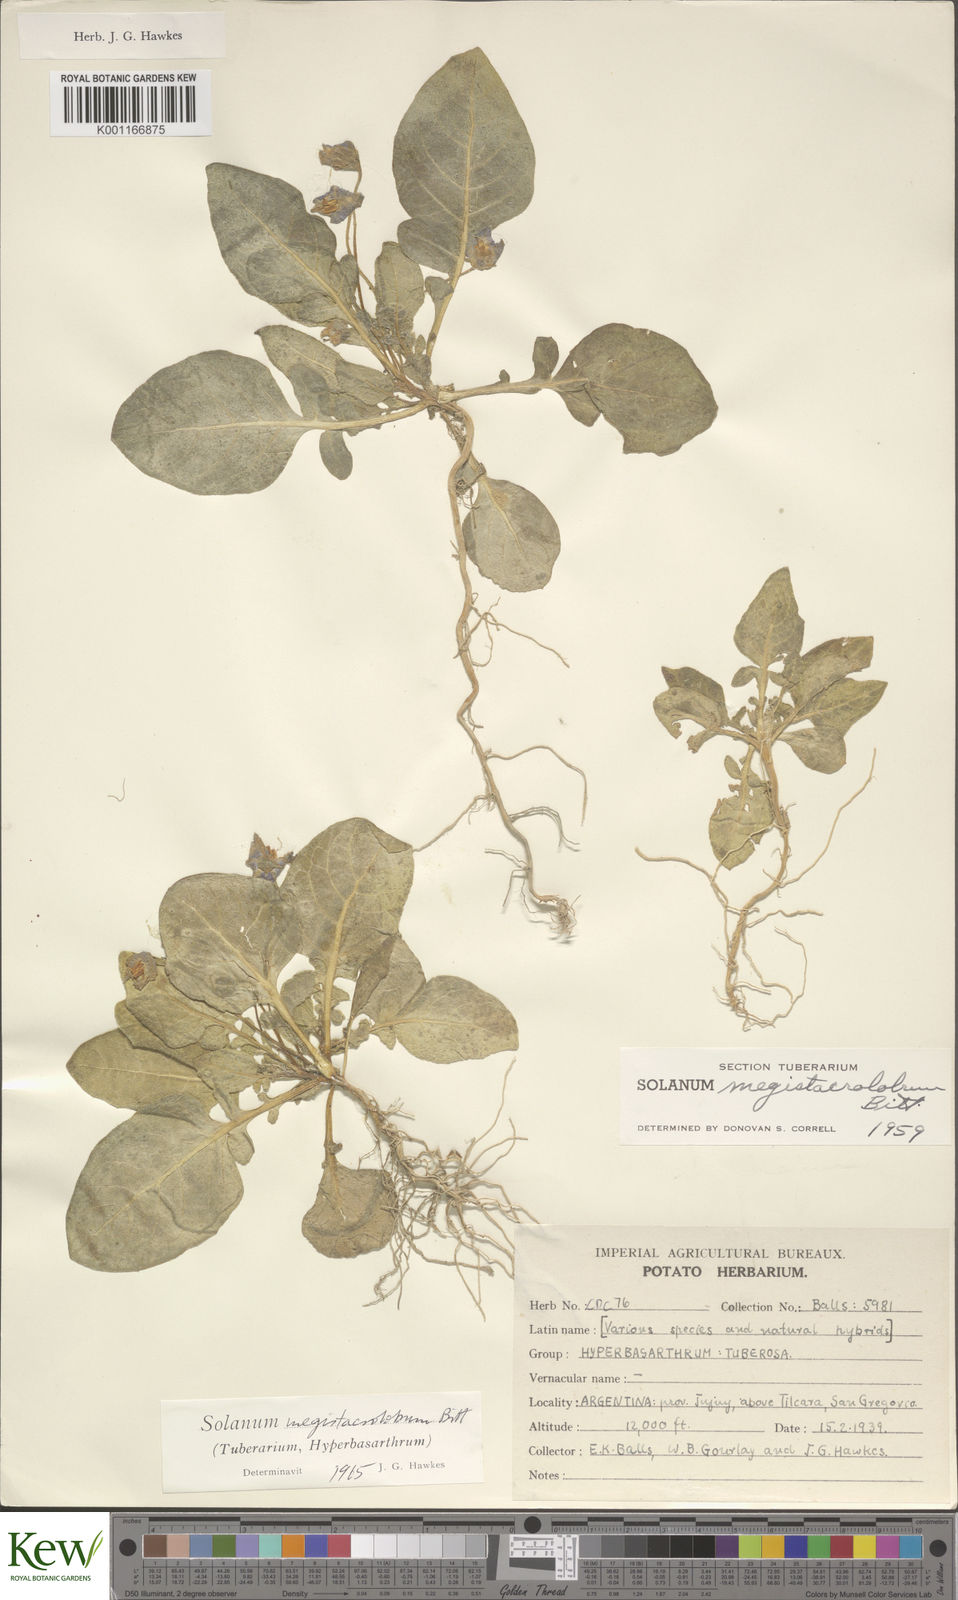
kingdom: Plantae
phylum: Tracheophyta
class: Magnoliopsida
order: Solanales
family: Solanaceae
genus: Solanum
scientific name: Solanum boliviense
